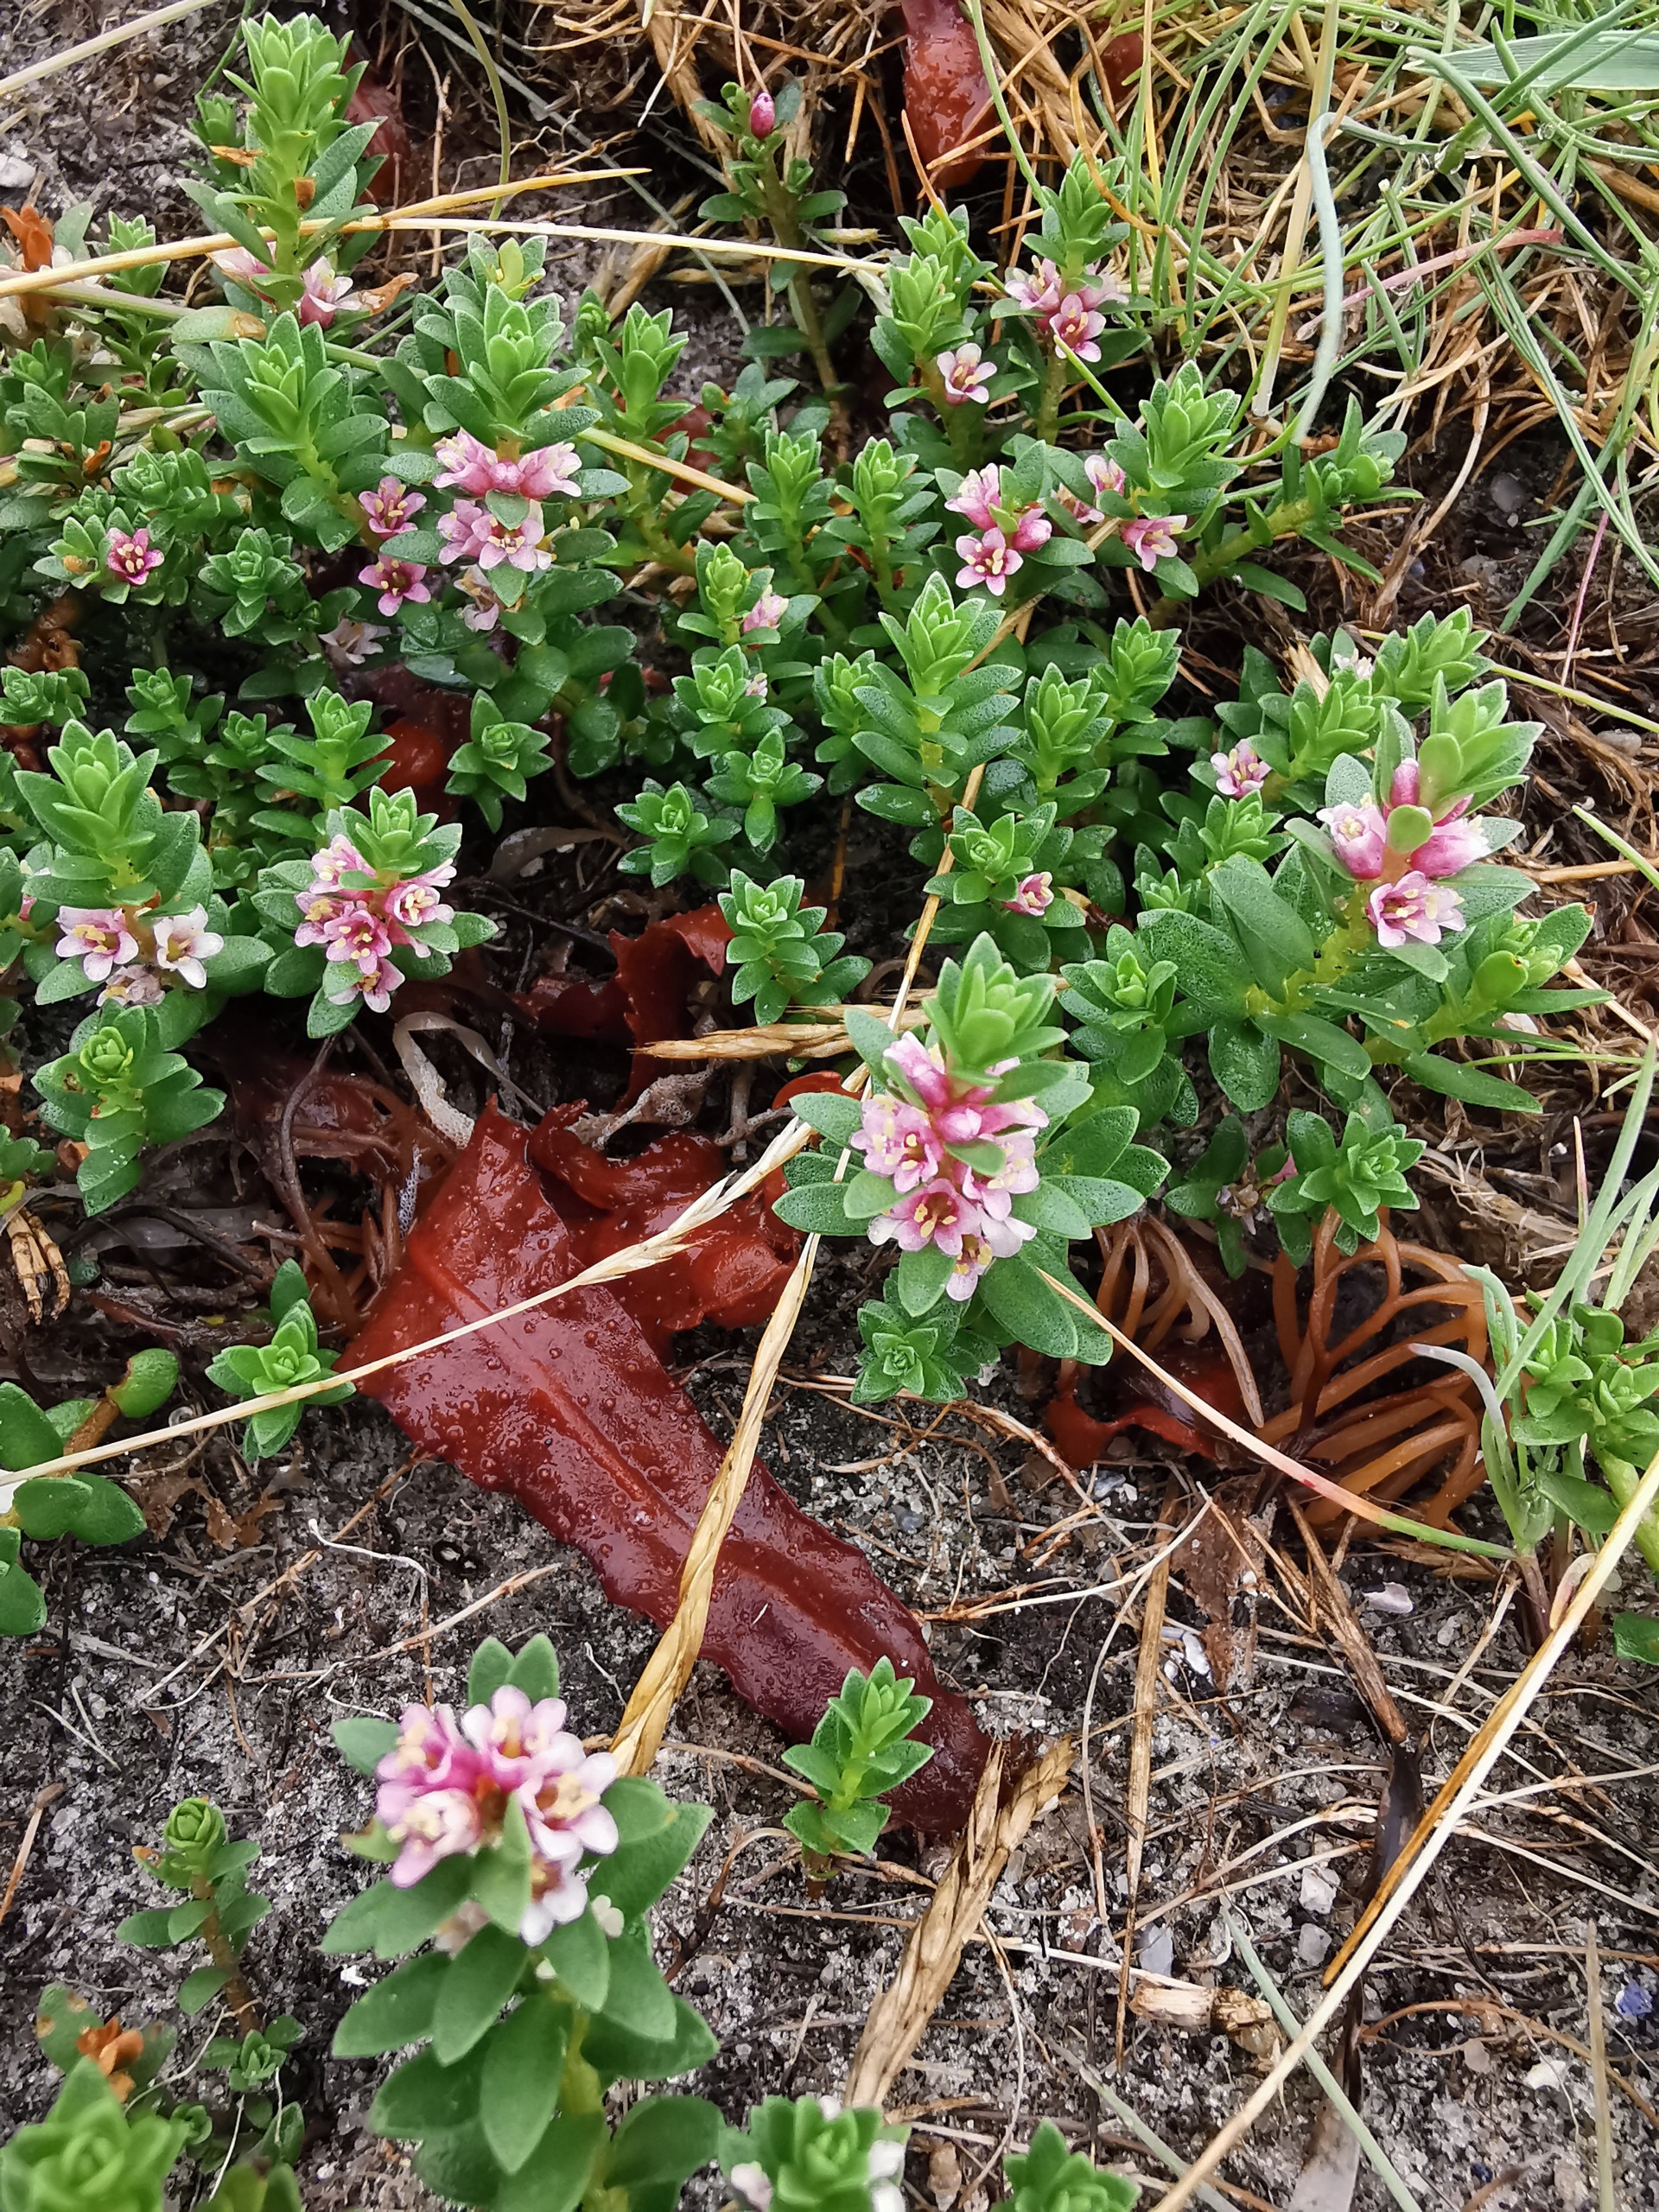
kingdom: Plantae
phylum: Tracheophyta
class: Magnoliopsida
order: Ericales
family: Primulaceae
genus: Lysimachia
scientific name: Lysimachia maritima
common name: Sandkryb
